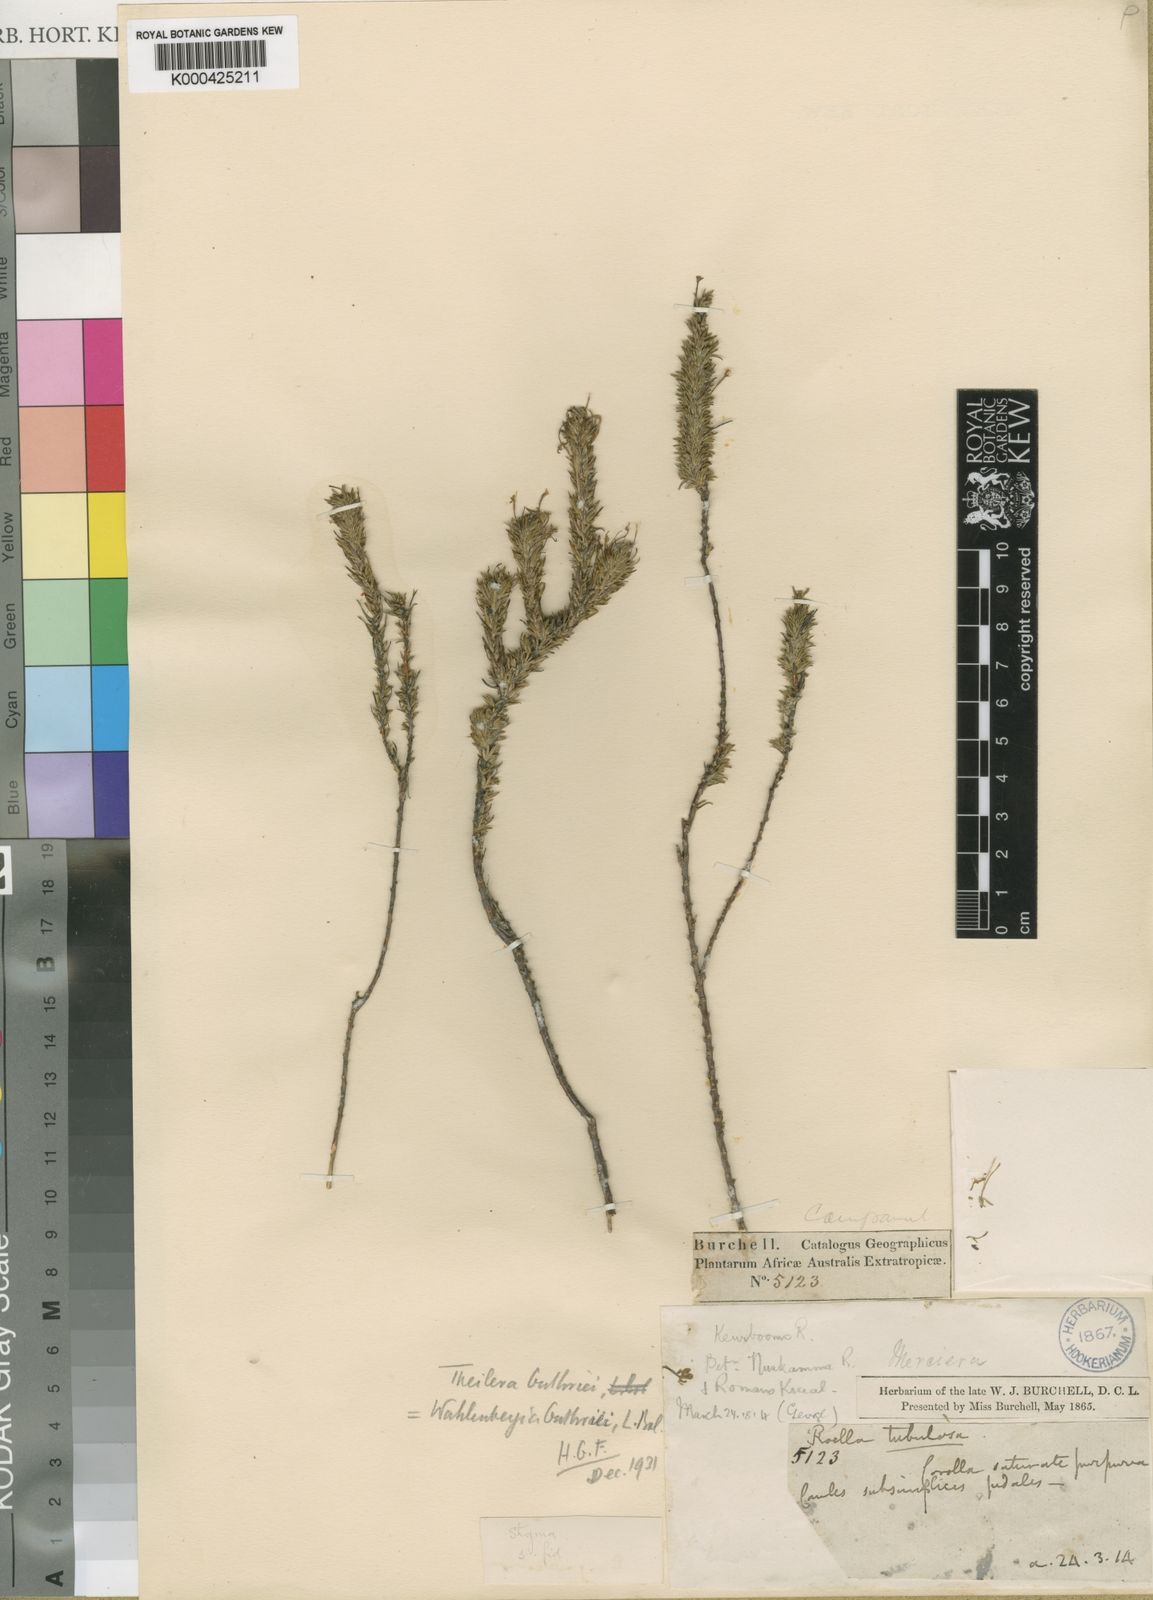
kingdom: Plantae
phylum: Tracheophyta
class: Magnoliopsida
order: Asterales
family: Campanulaceae
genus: Theilera
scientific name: Theilera guthriei
